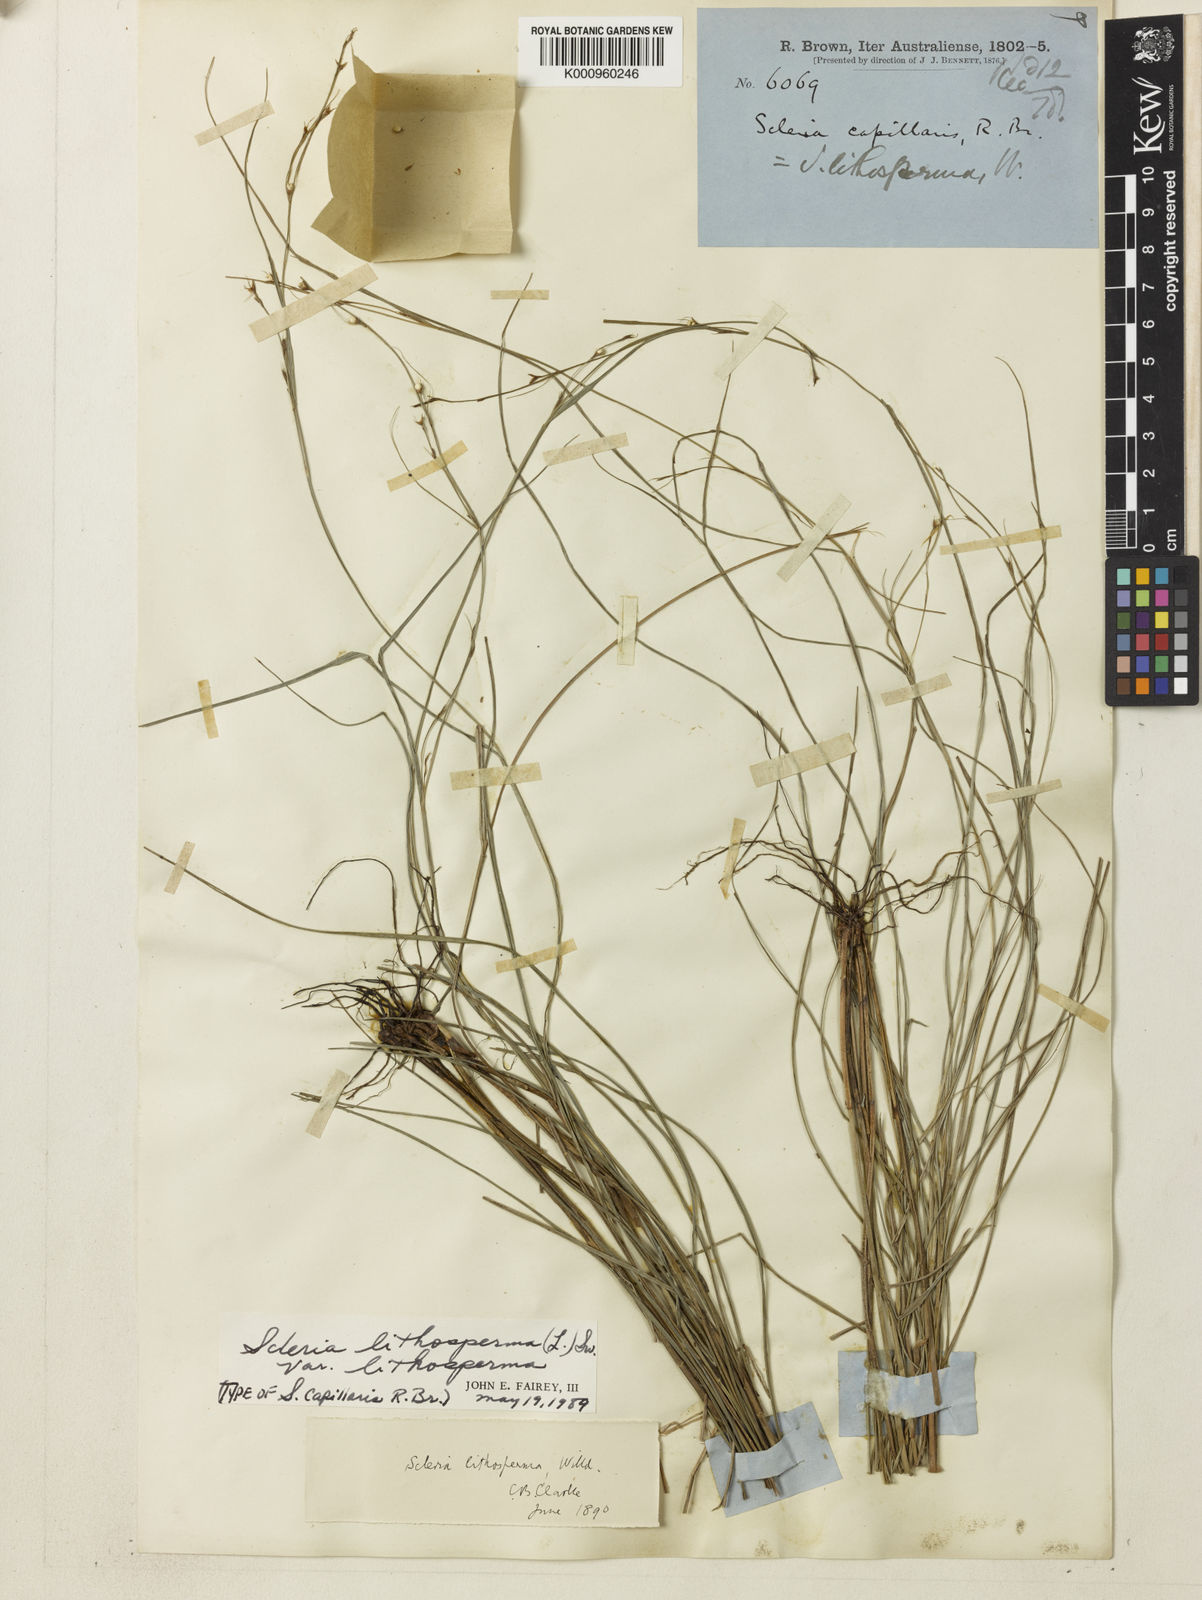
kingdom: Plantae
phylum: Tracheophyta
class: Liliopsida
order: Poales
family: Cyperaceae
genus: Scleria
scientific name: Scleria lithosperma
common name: Florida keys nut-rush
